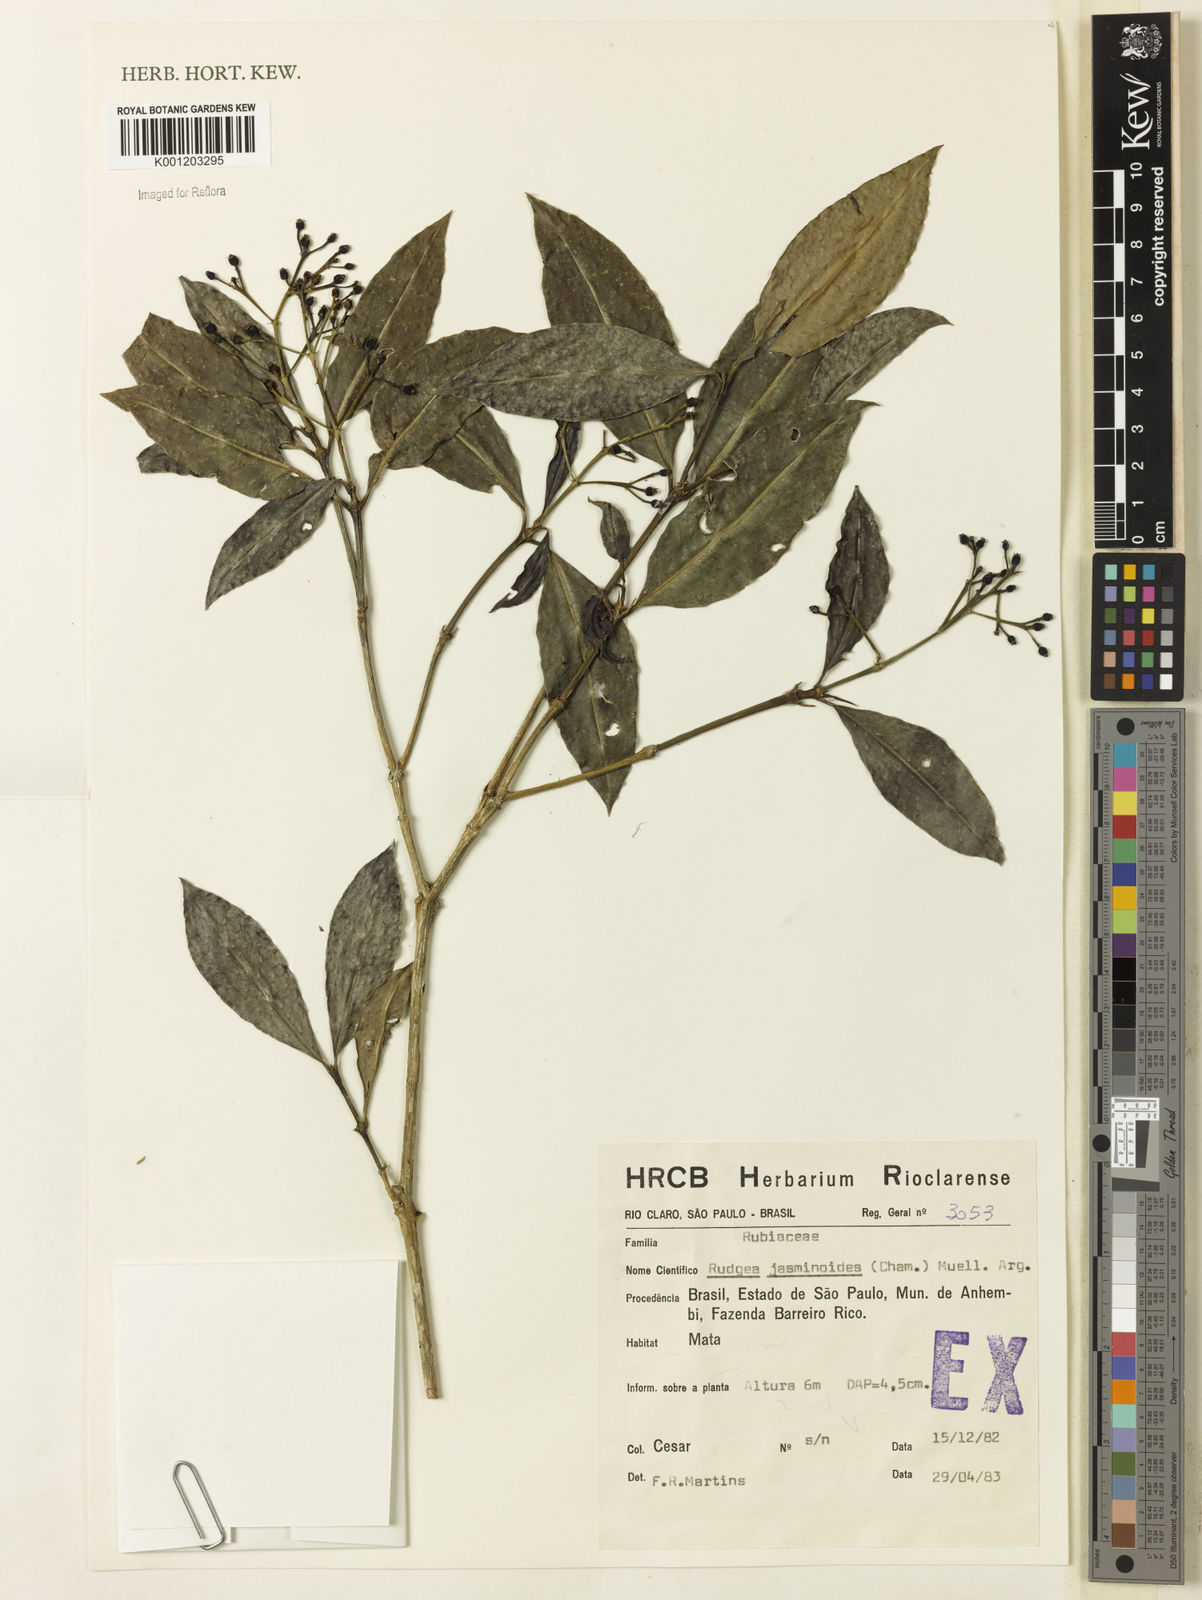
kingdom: Plantae
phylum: Tracheophyta
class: Magnoliopsida
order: Gentianales
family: Rubiaceae
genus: Rudgea
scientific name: Rudgea
